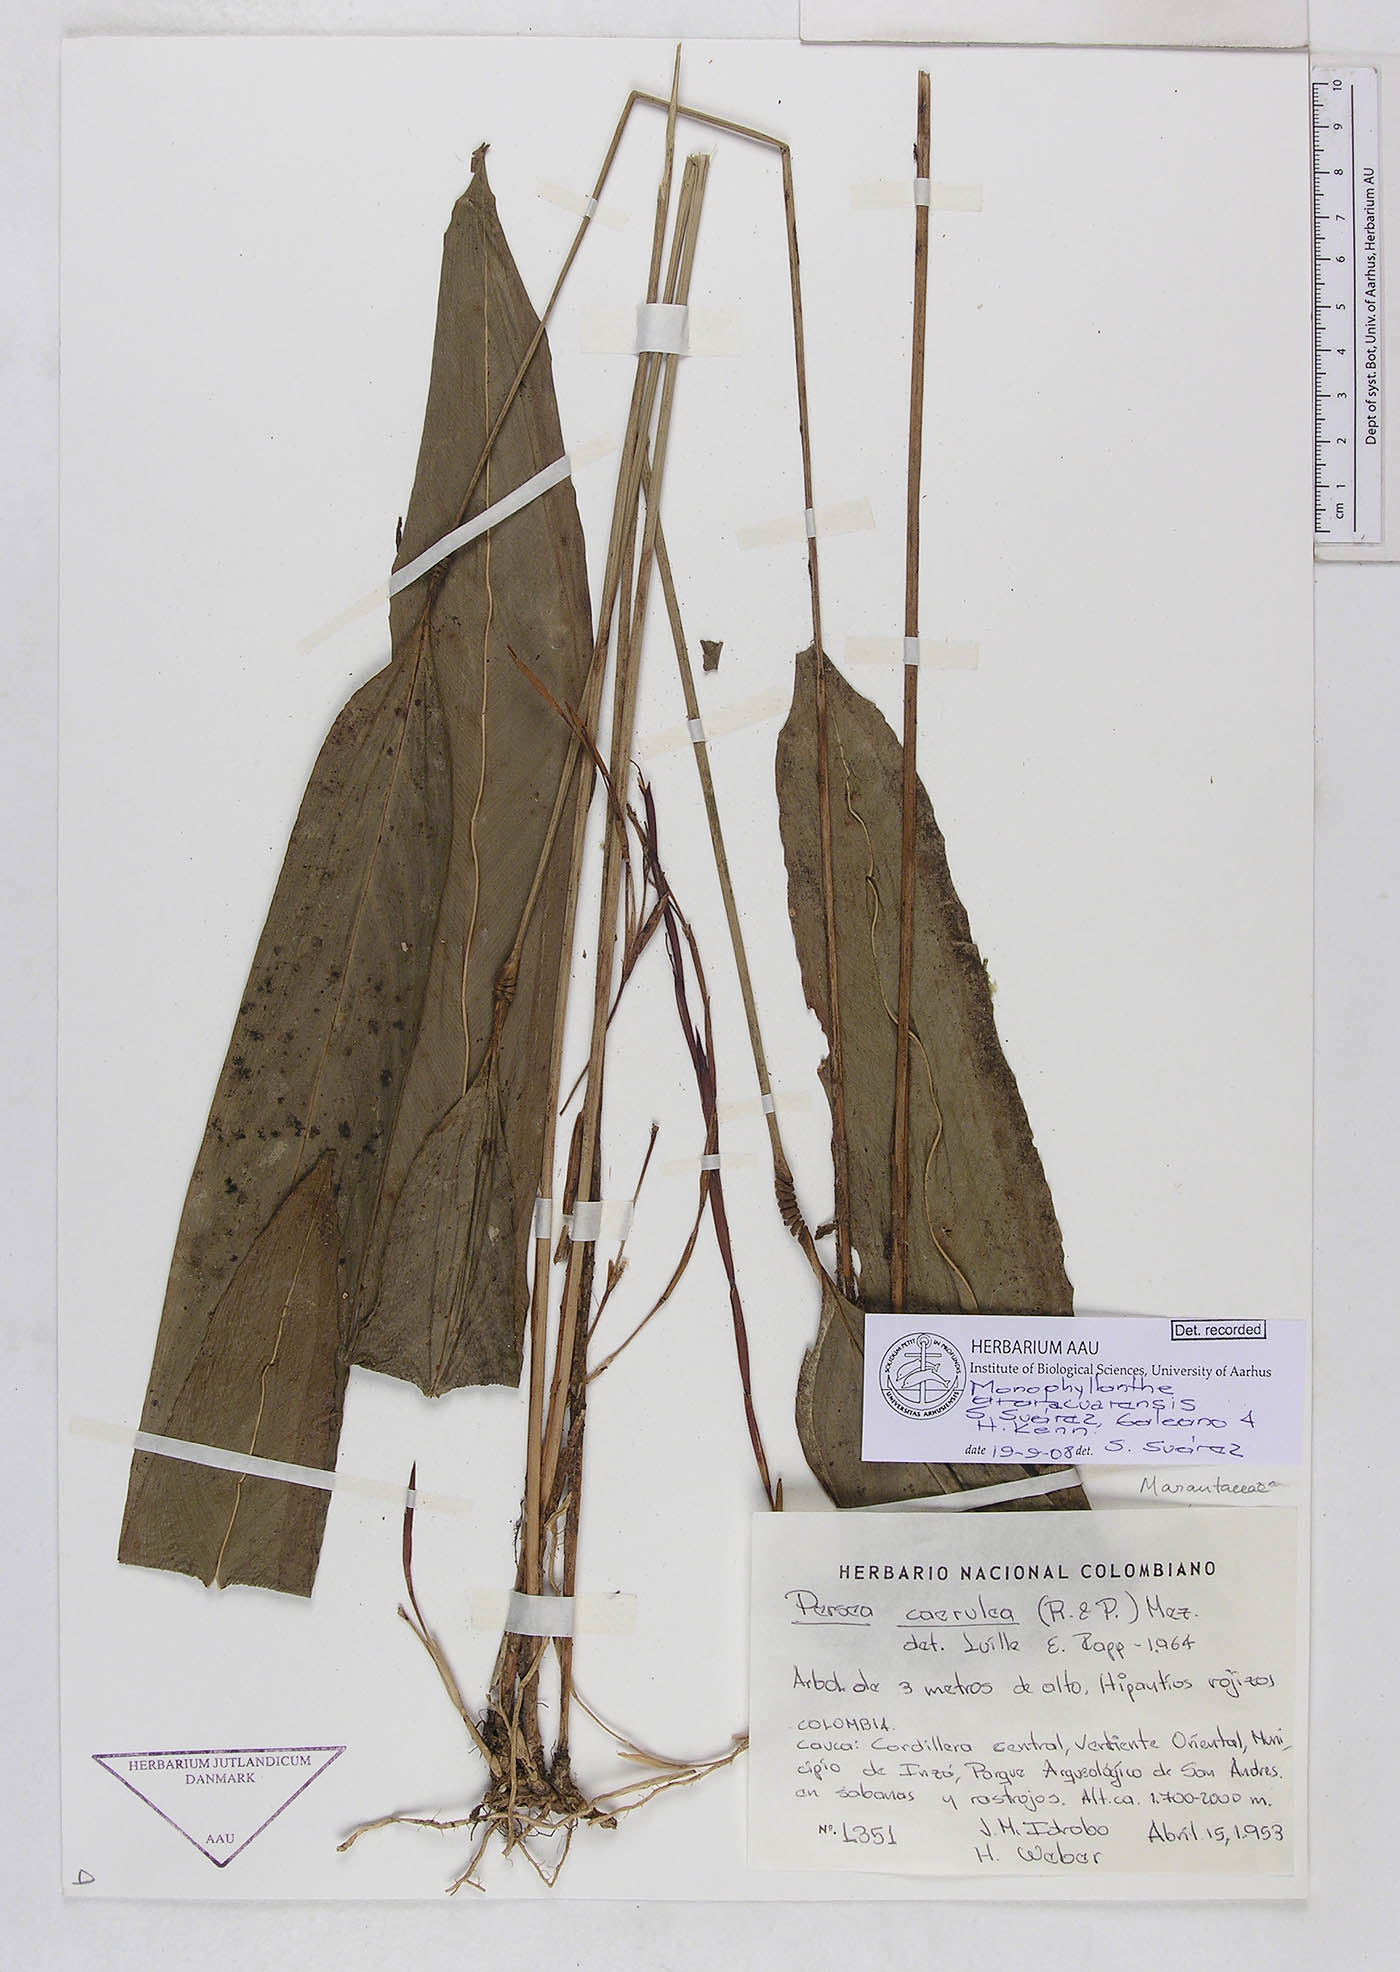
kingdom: Plantae
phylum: Tracheophyta
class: Liliopsida
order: Zingiberales
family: Marantaceae
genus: Monophyllanthe
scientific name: Monophyllanthe araracuarensis
